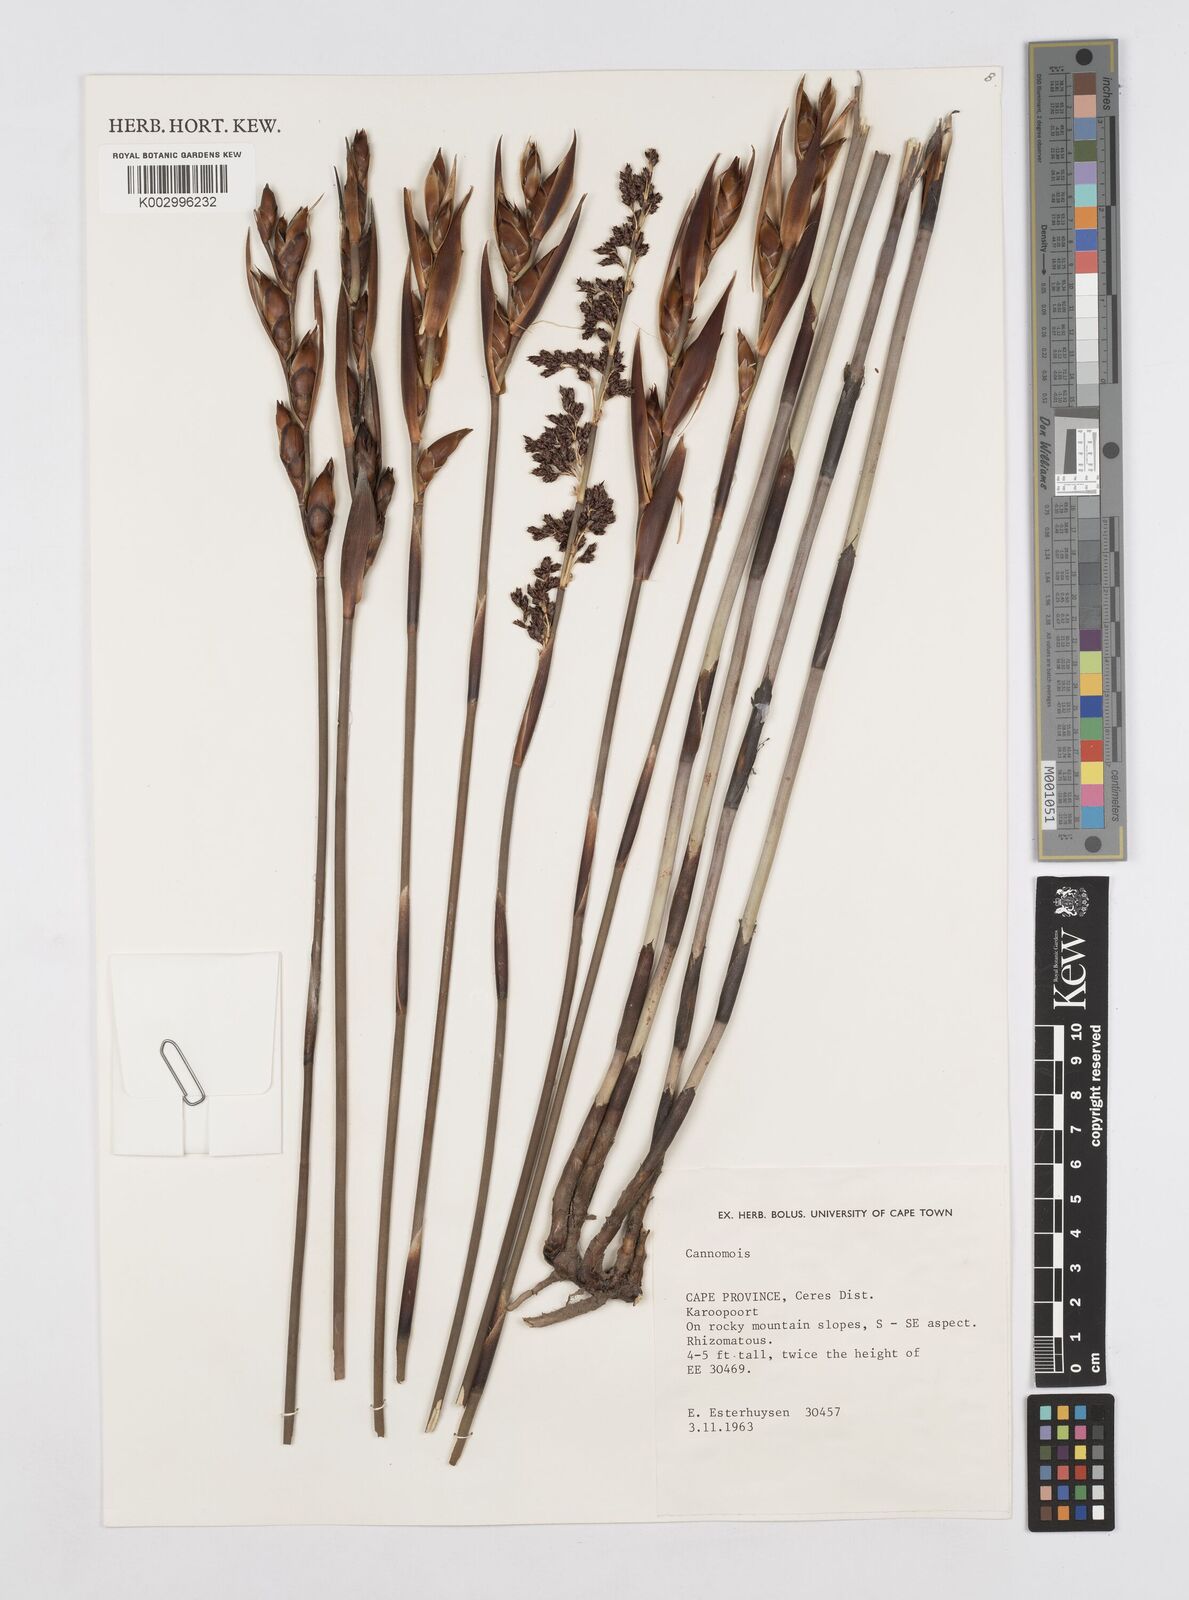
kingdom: Plantae
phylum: Tracheophyta
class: Liliopsida
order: Poales
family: Restionaceae
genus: Cannomois
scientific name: Cannomois
